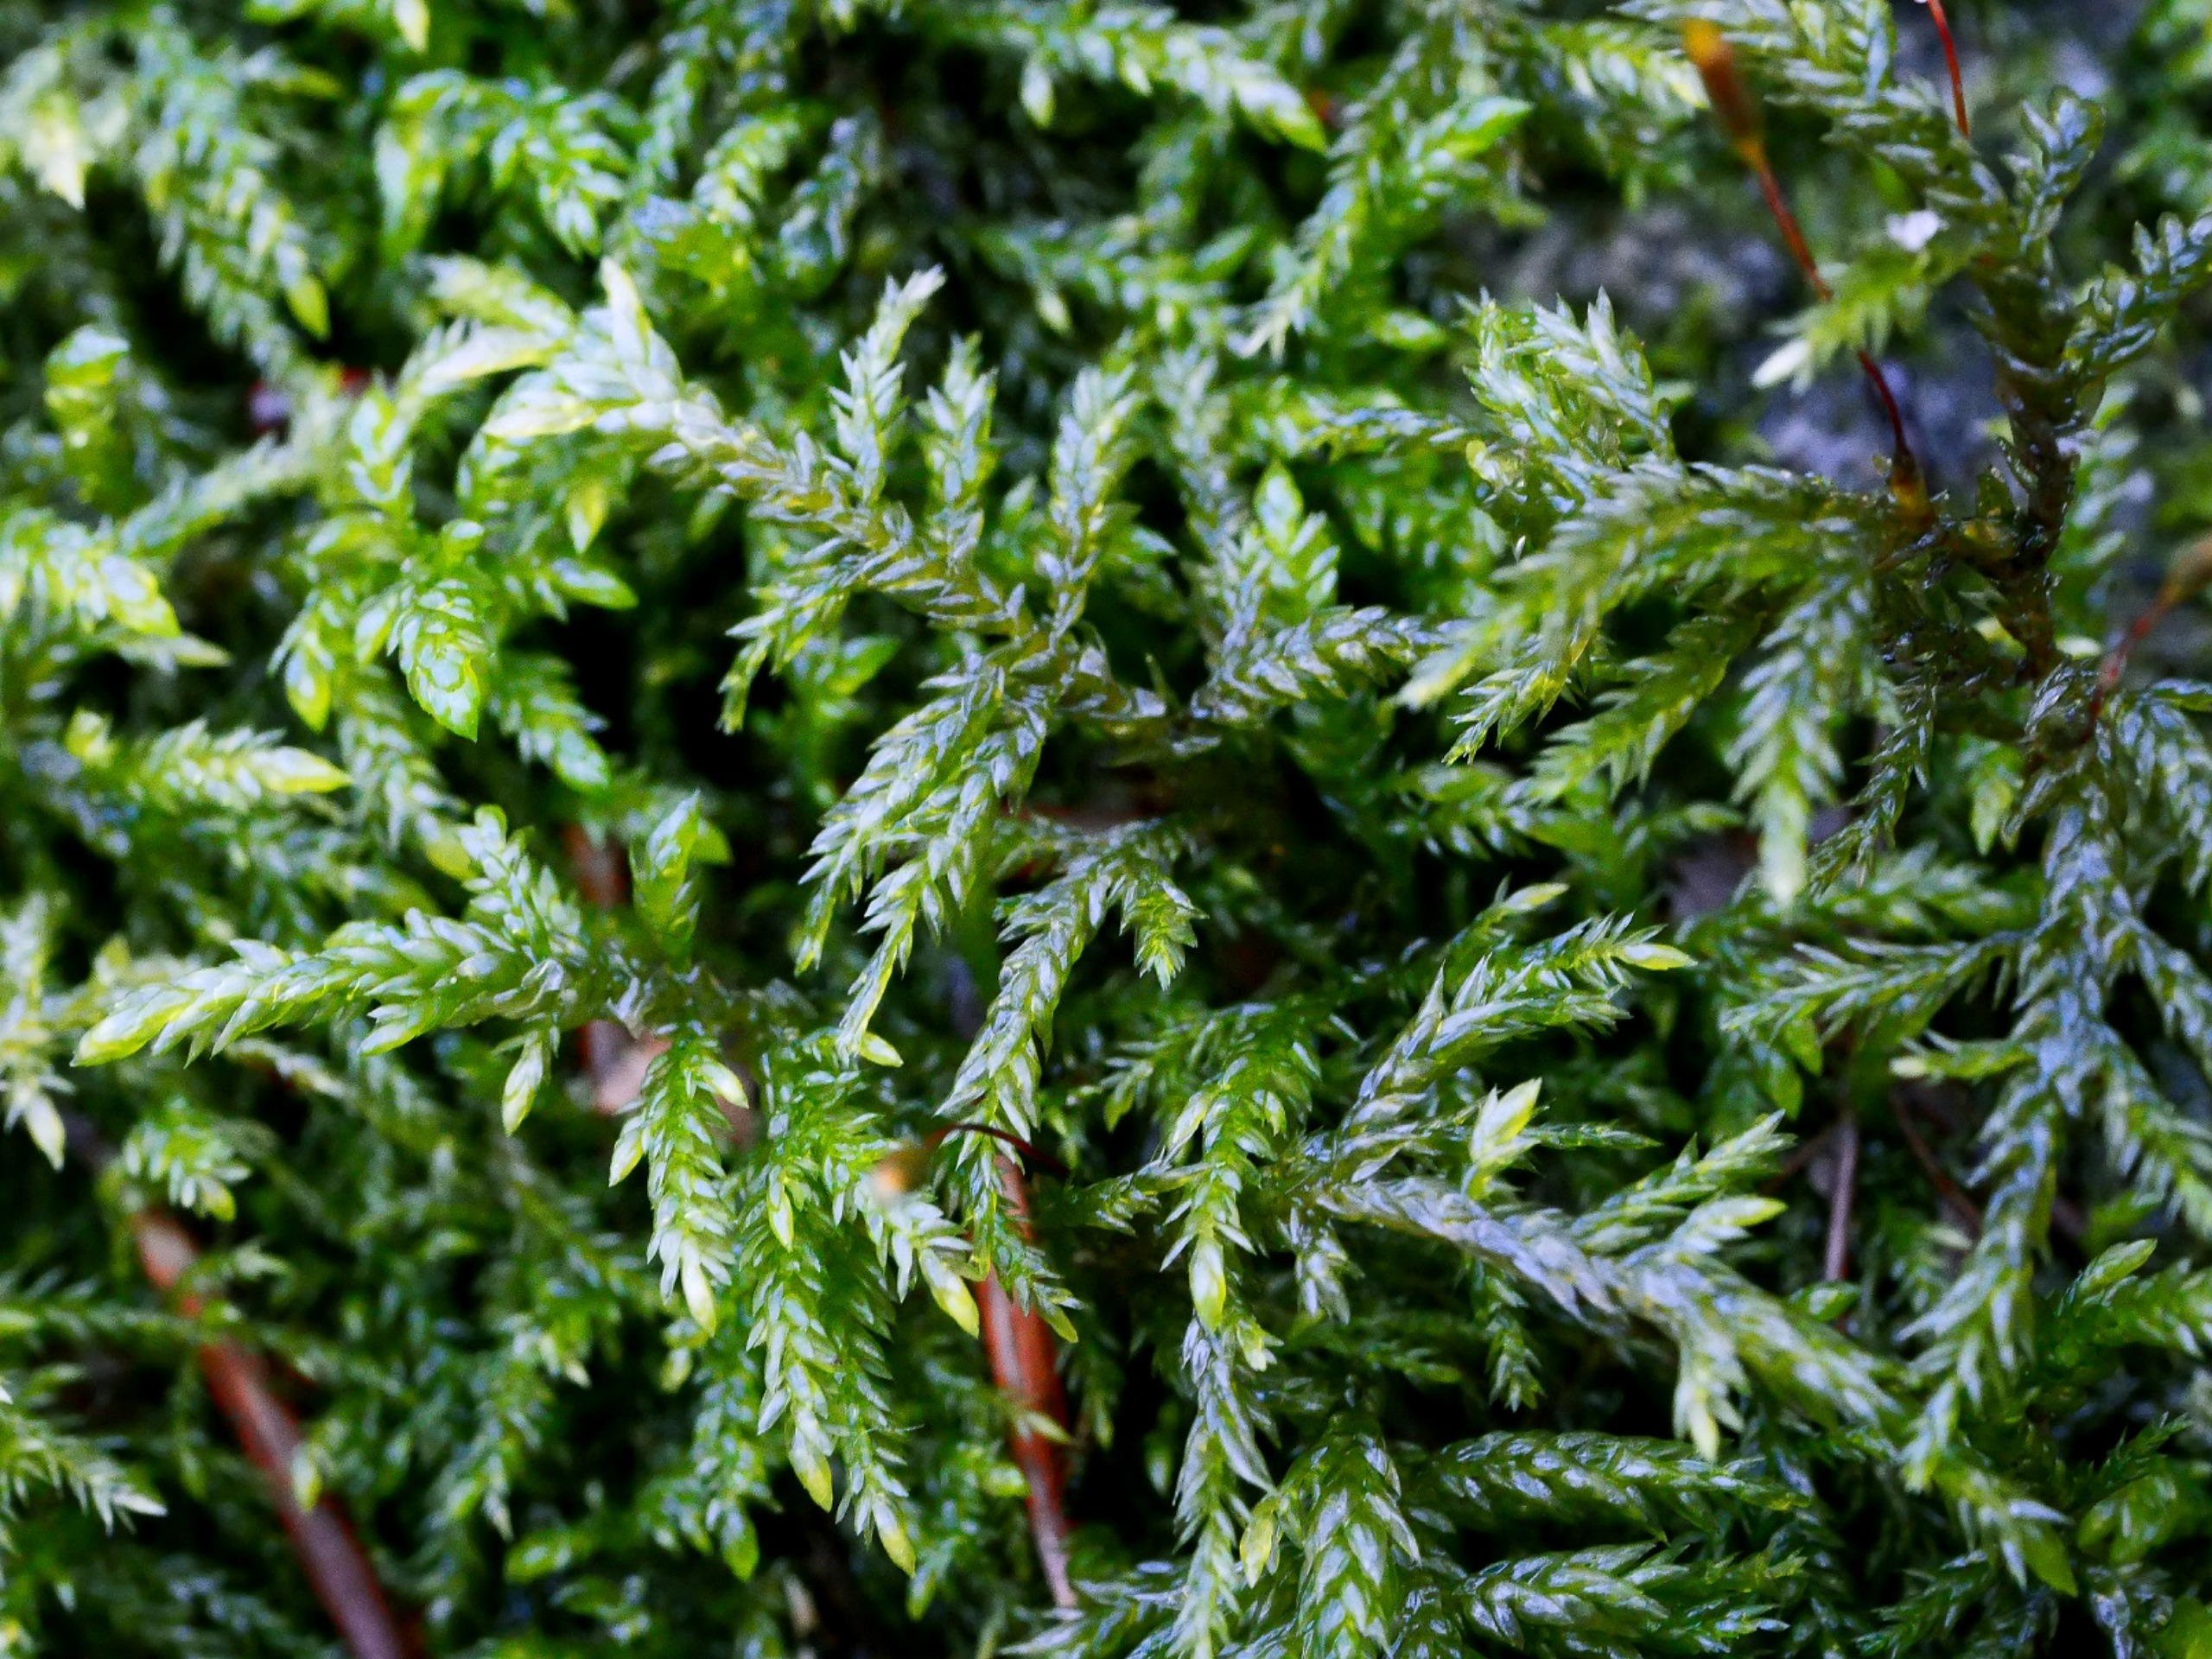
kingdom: Plantae
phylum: Bryophyta
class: Bryopsida
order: Hypnales
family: Lembophyllaceae
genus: Isothecium
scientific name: Isothecium alopecuroides
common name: Stor stammemos
